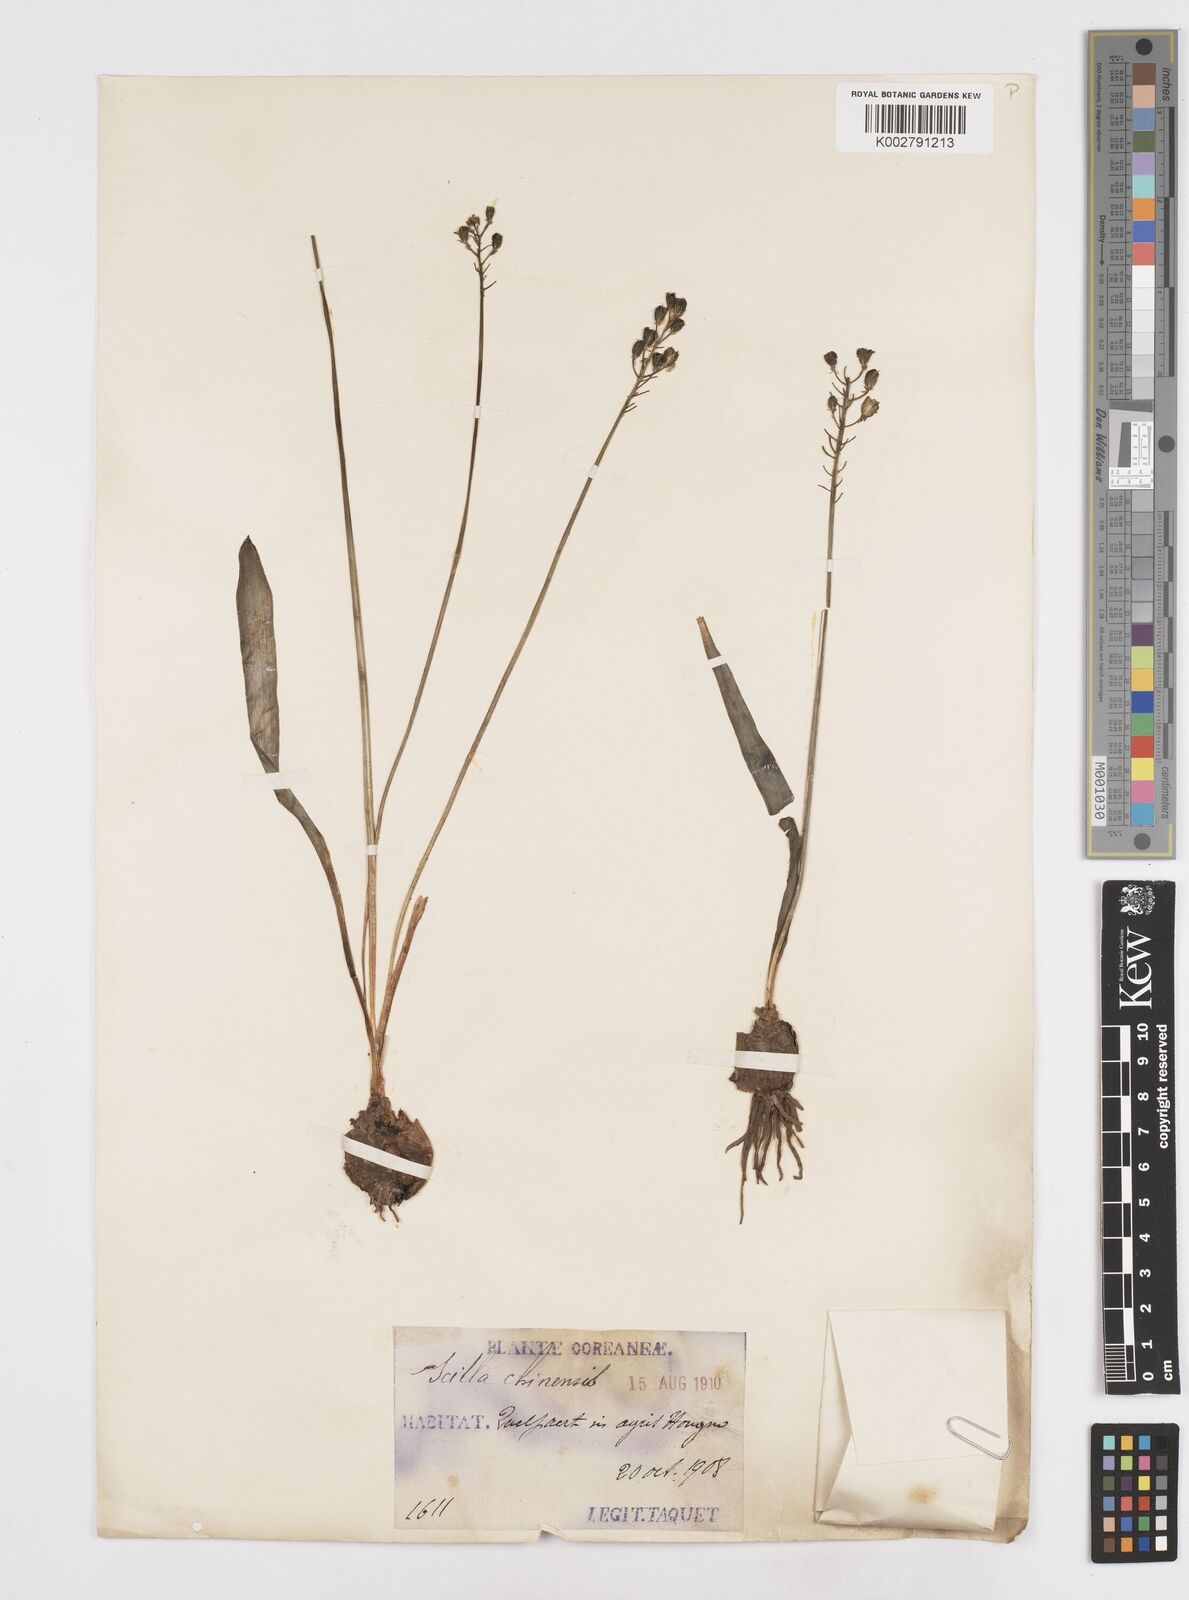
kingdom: Plantae
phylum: Tracheophyta
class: Liliopsida
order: Liliales
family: Melanthiaceae
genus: Helonias
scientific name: Helonias breviscapa
